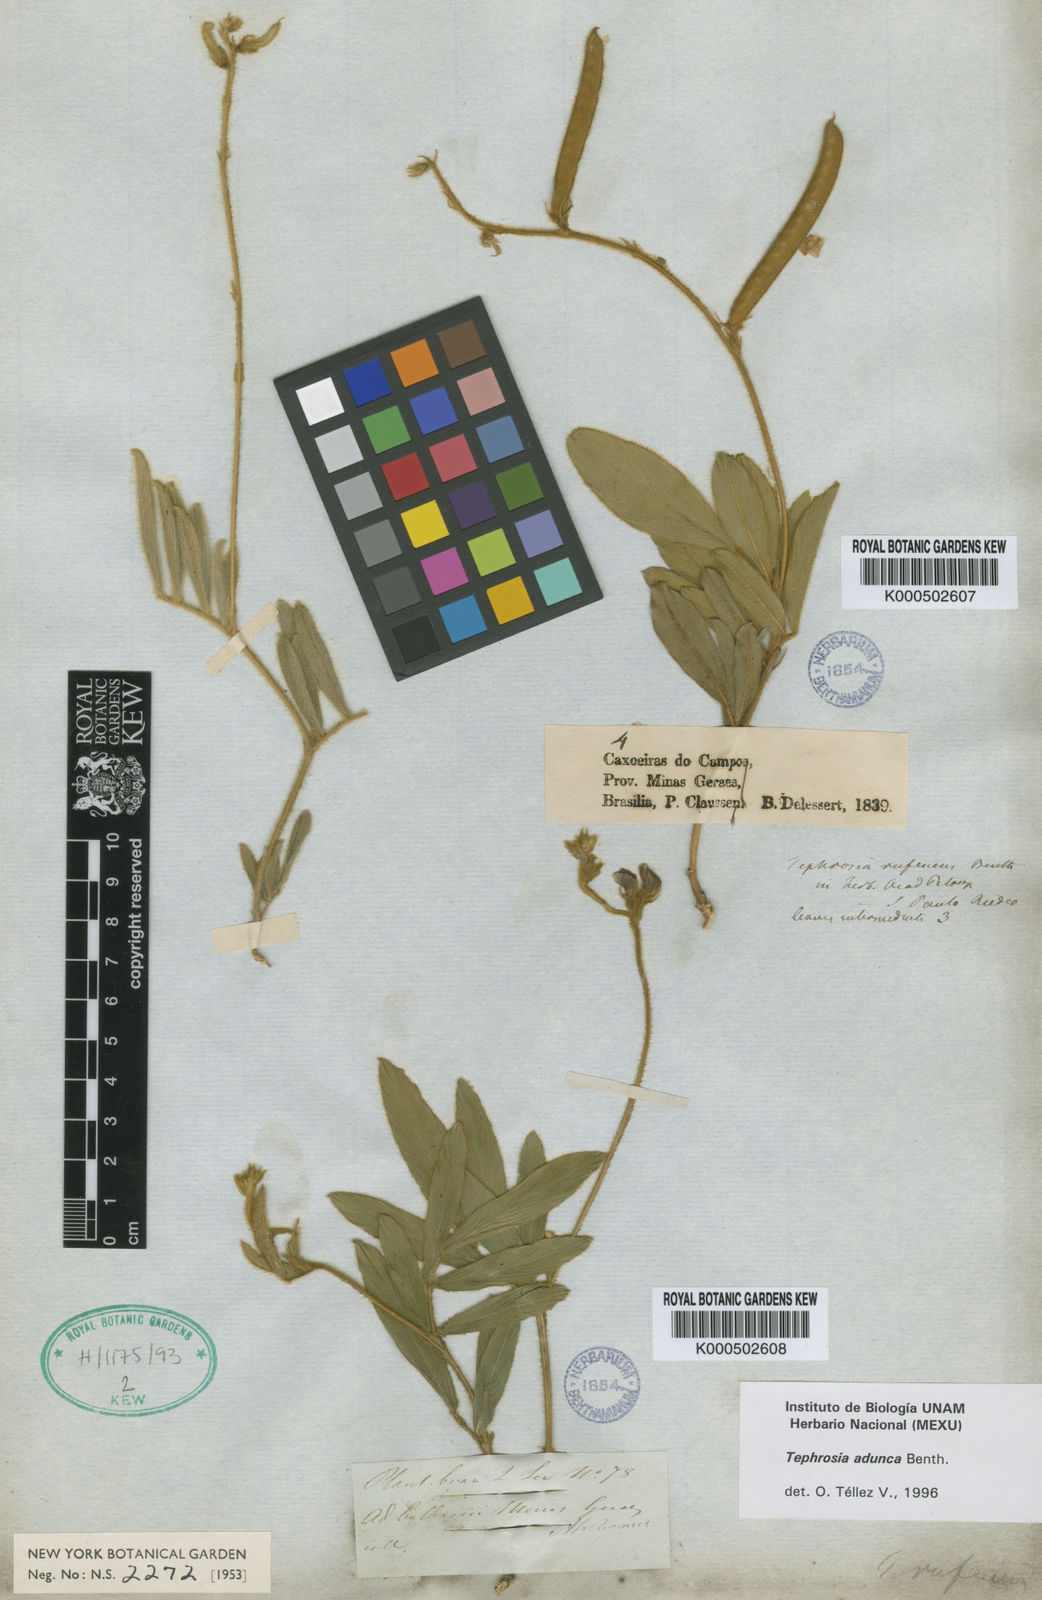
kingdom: Plantae
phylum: Tracheophyta
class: Magnoliopsida
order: Fabales
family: Fabaceae
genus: Tephrosia
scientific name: Tephrosia adunca
